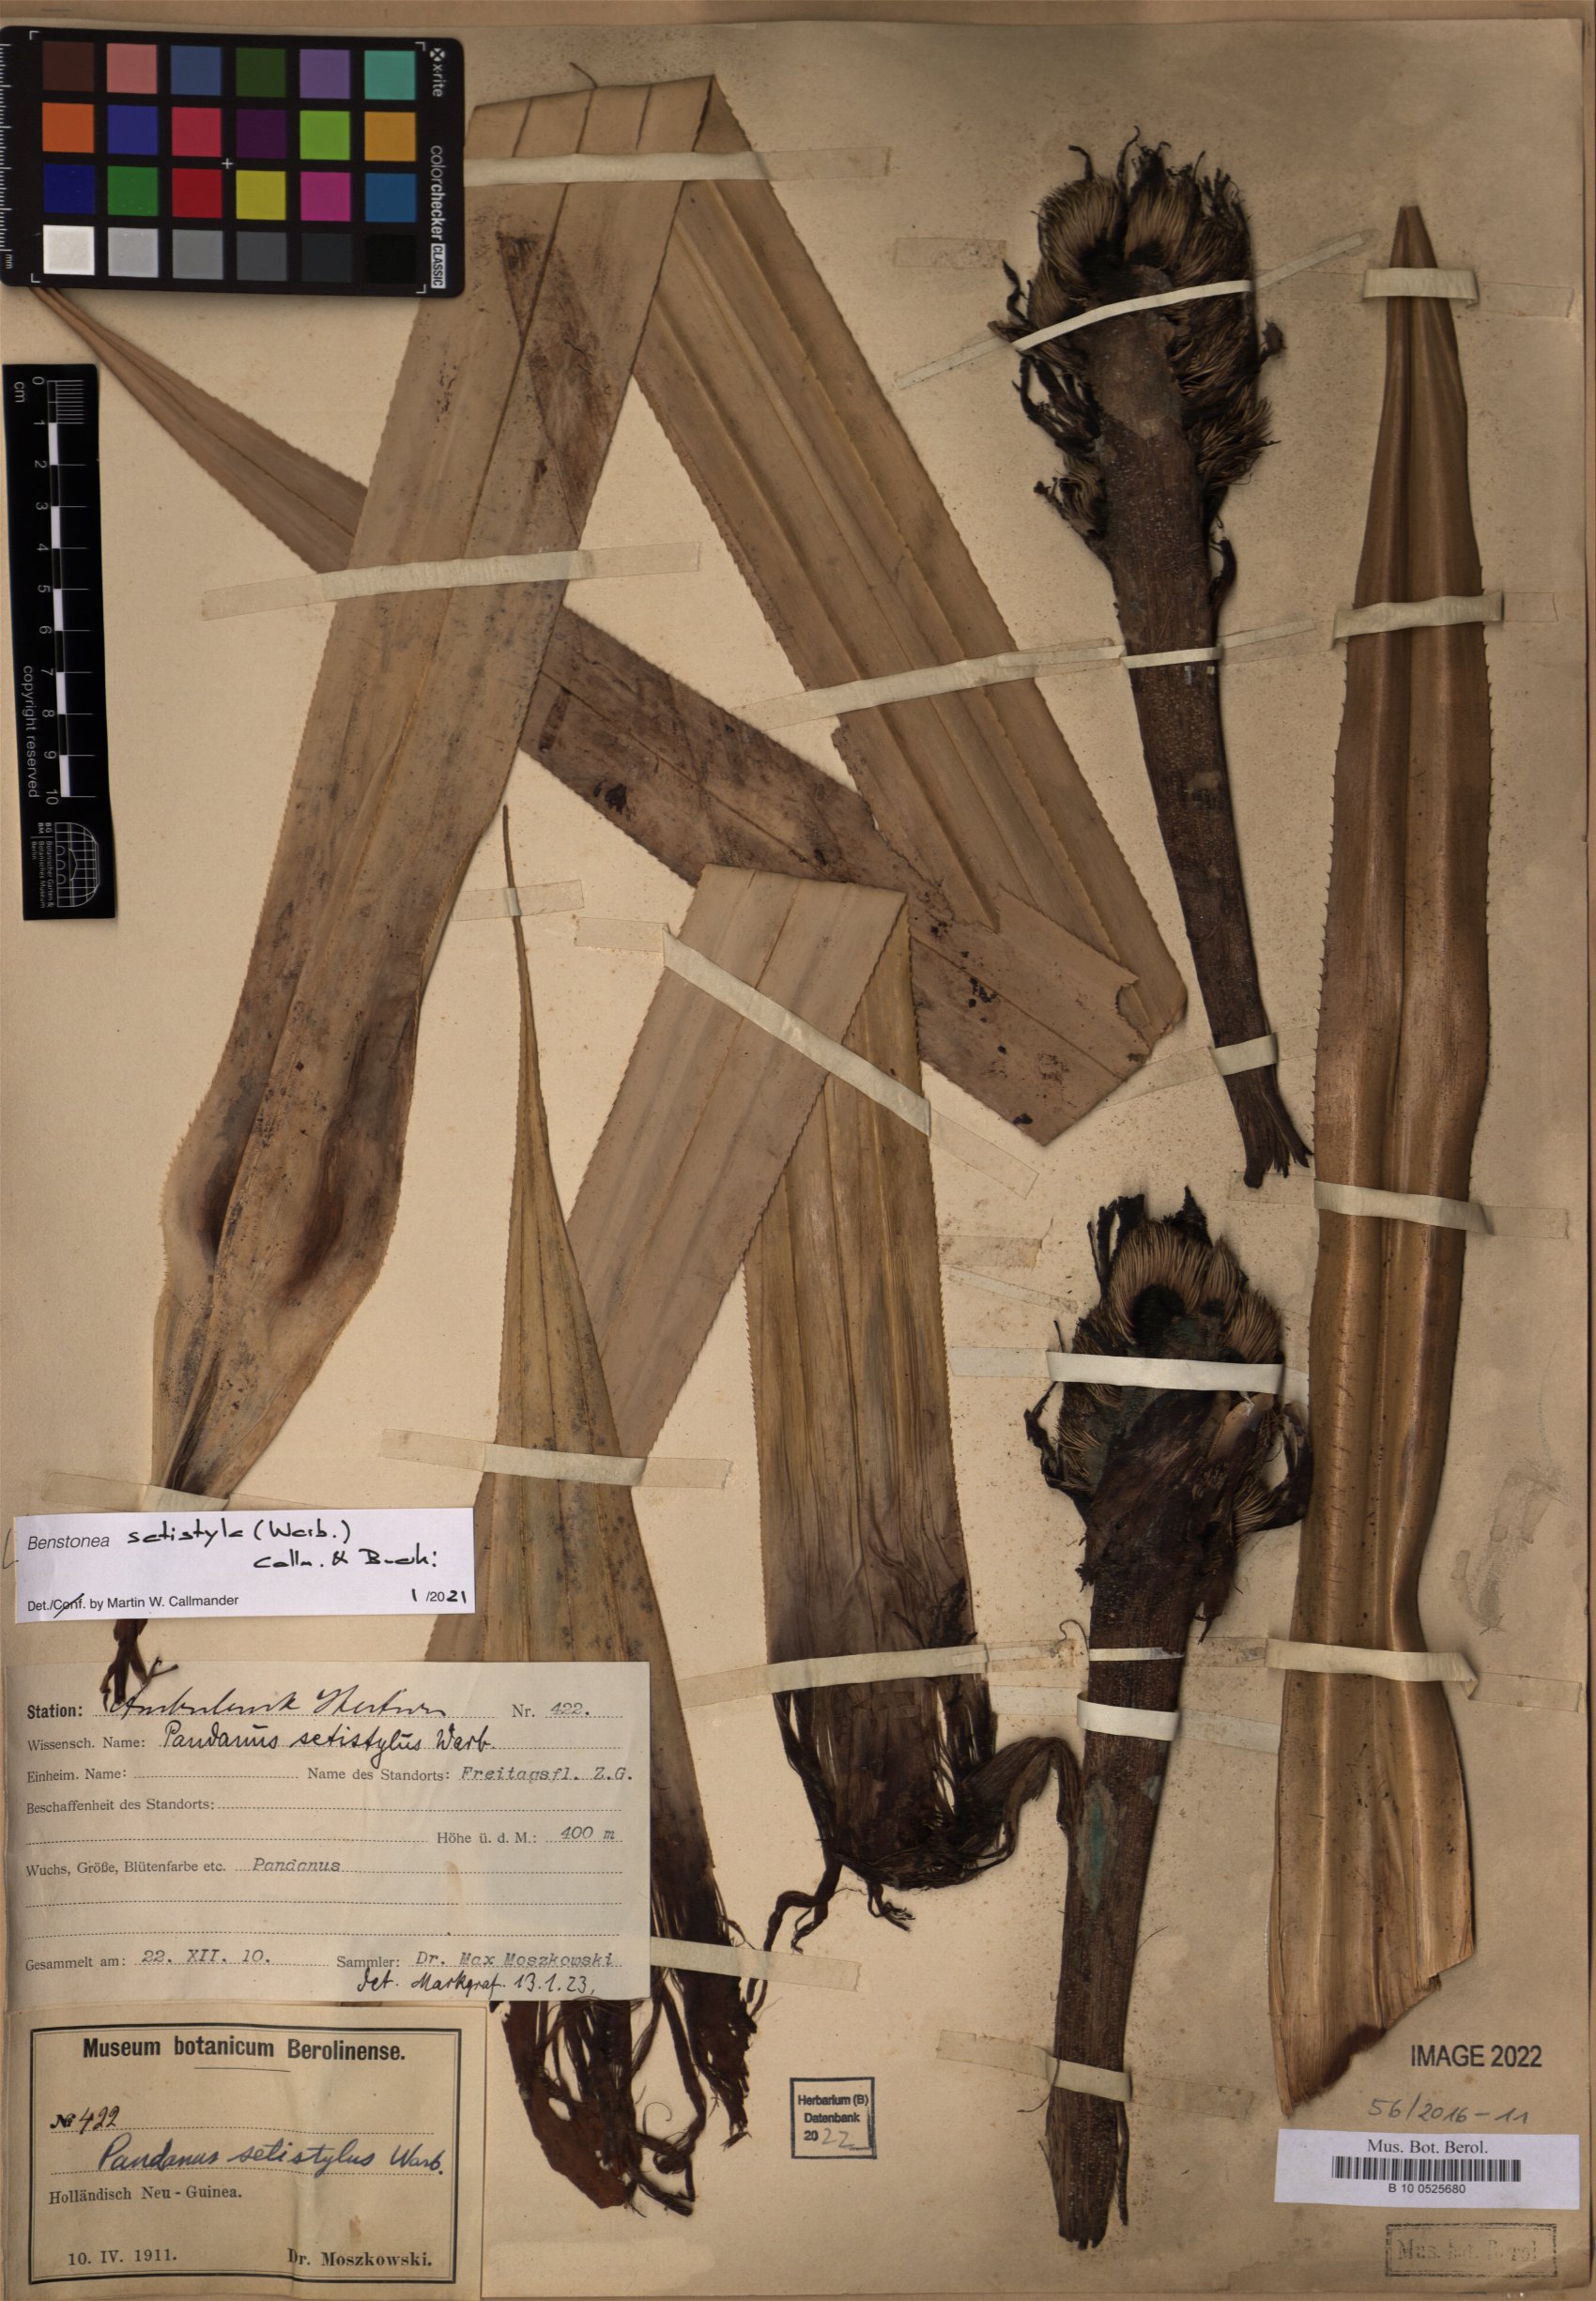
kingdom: Plantae
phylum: Tracheophyta
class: Liliopsida
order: Pandanales
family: Pandanaceae
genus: Benstonea
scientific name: Benstonea setistyla
